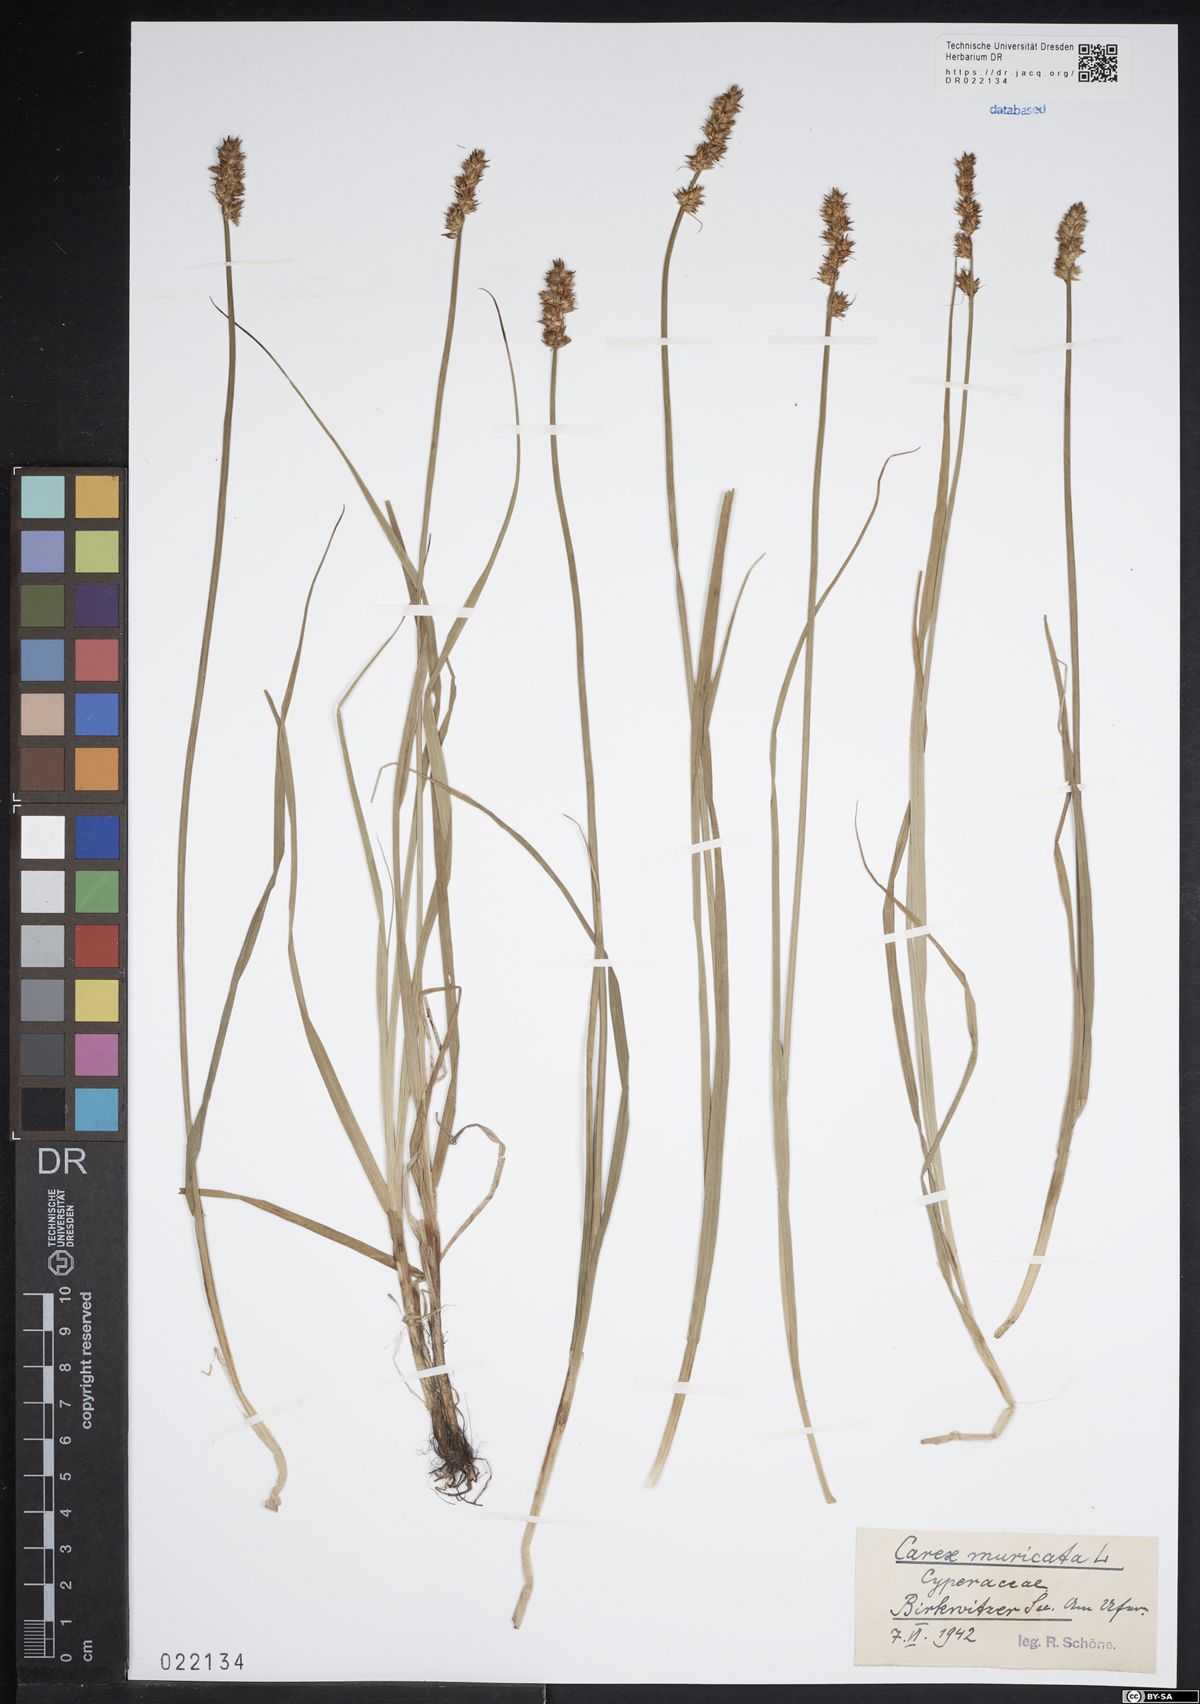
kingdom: Plantae
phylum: Tracheophyta
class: Liliopsida
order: Poales
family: Cyperaceae
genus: Carex
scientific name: Carex vulpina
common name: True fox-sedge
